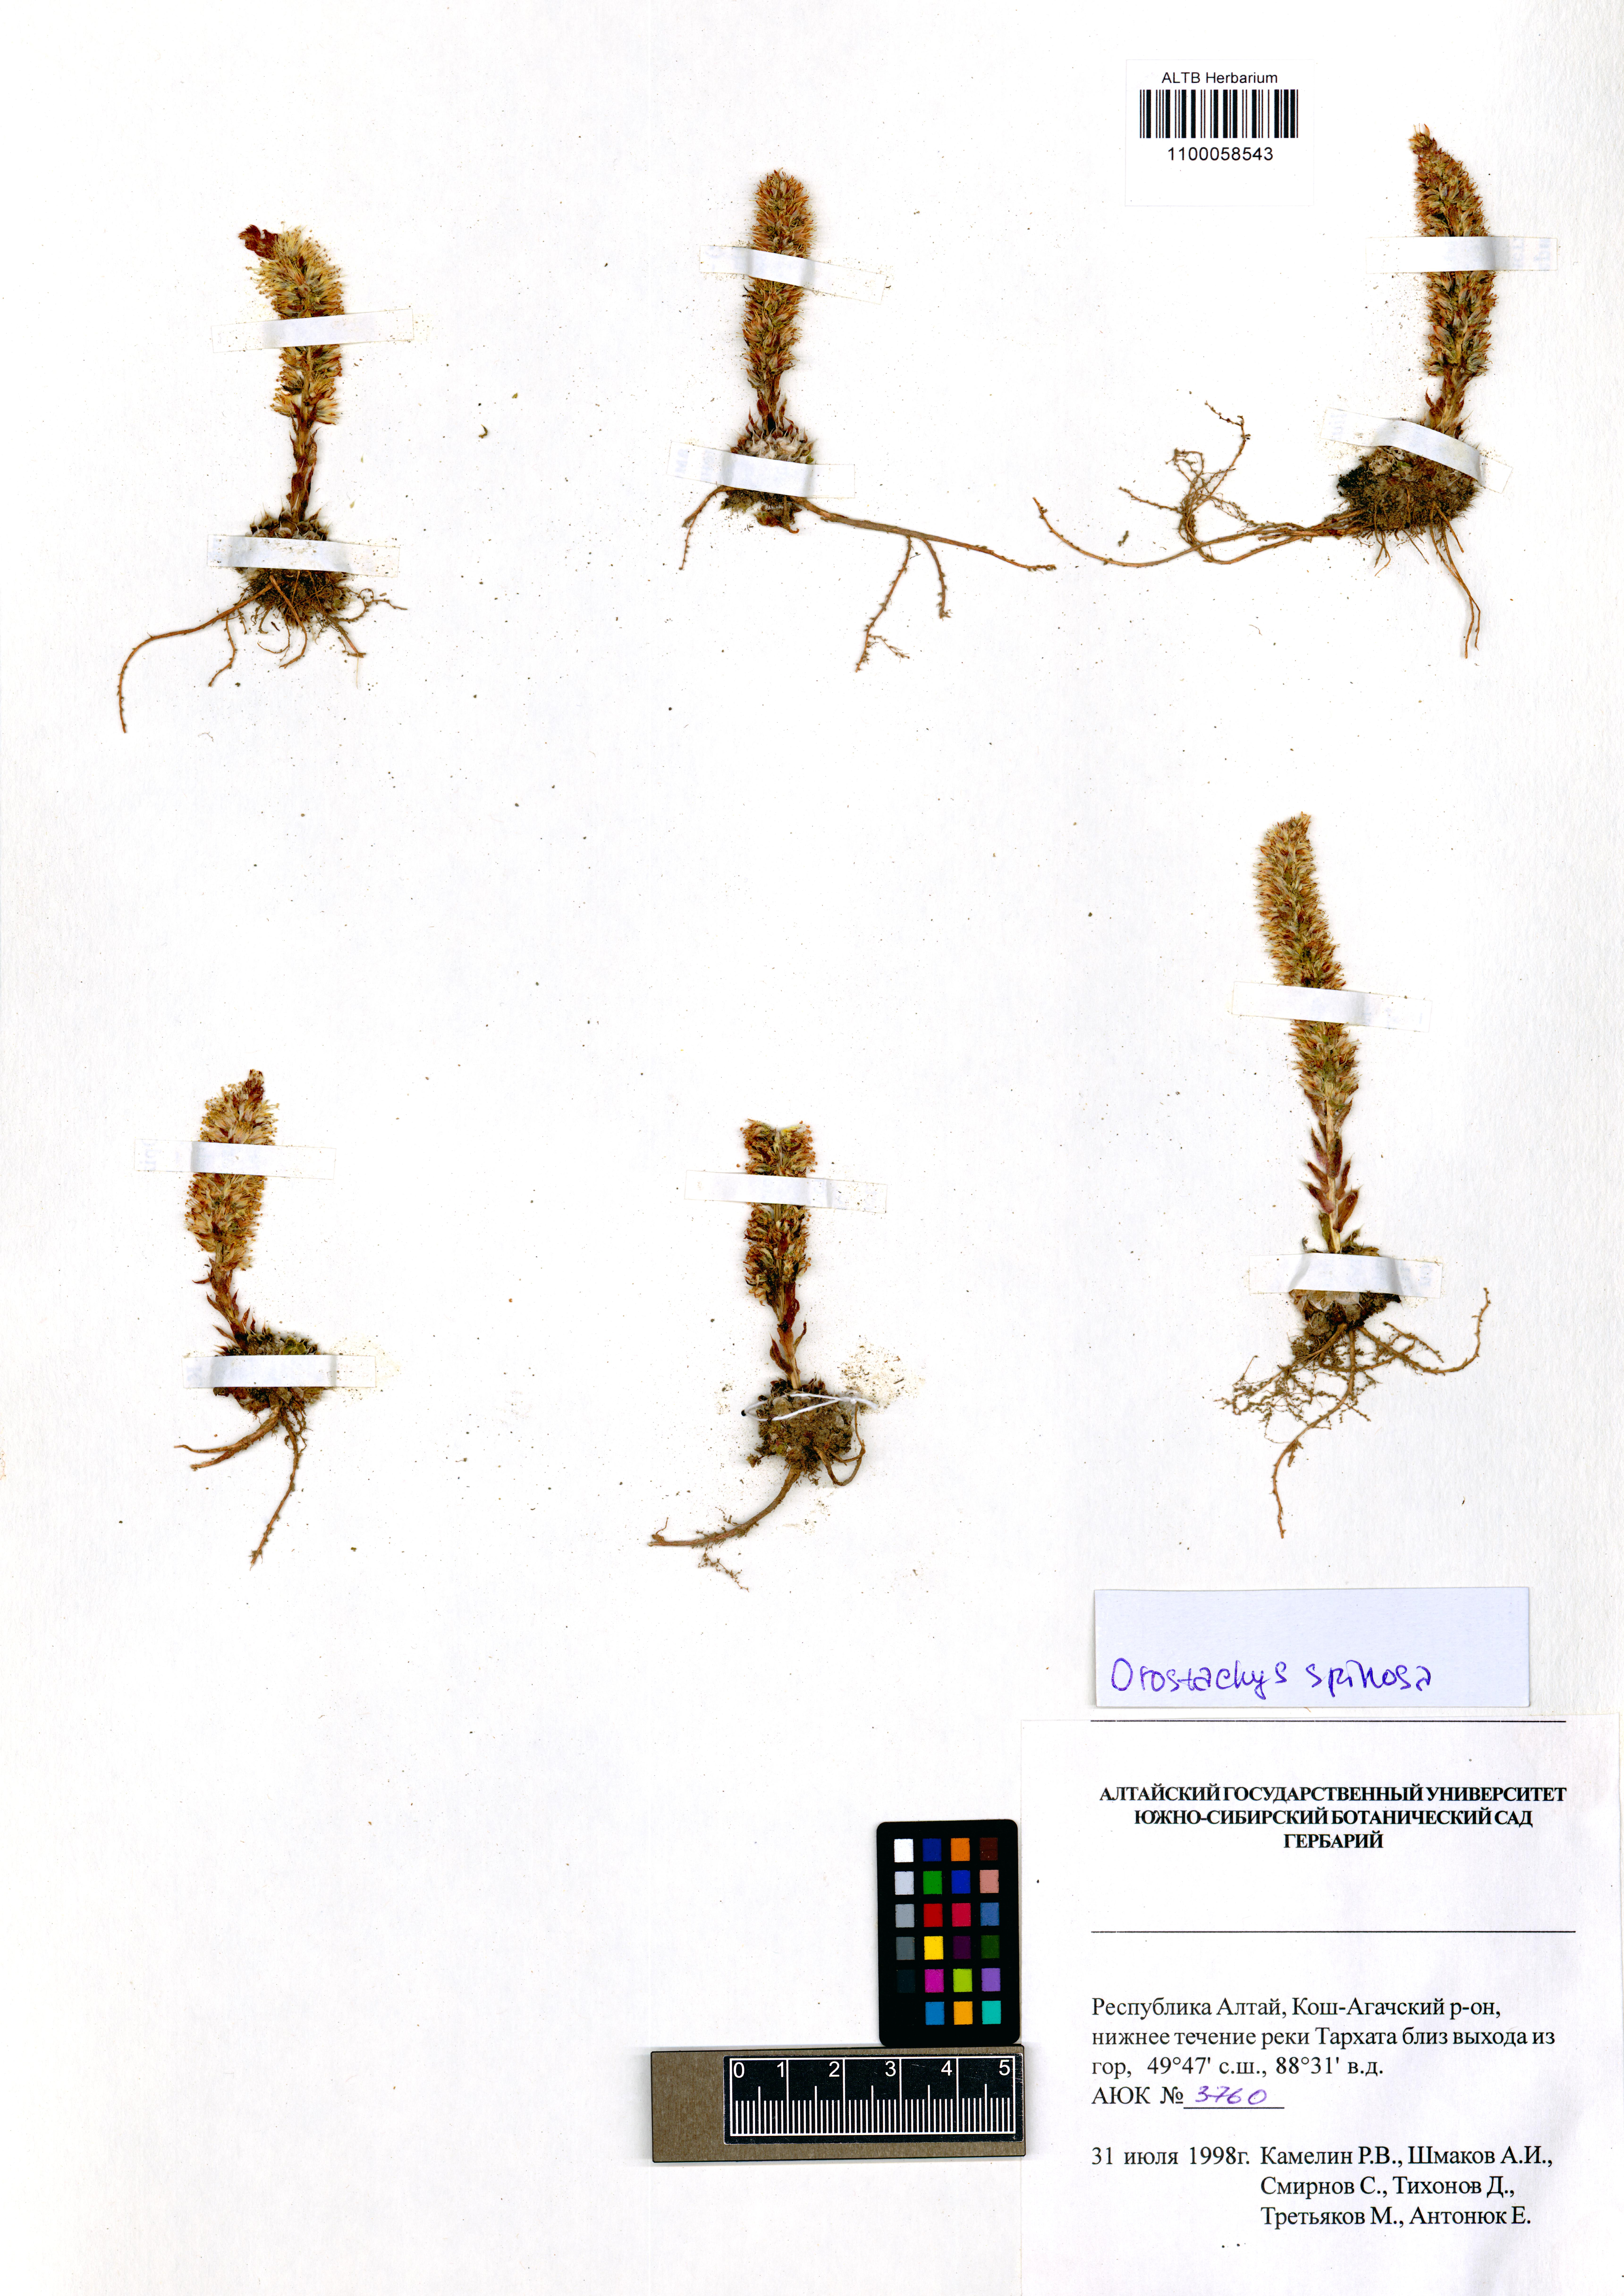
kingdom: Plantae
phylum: Tracheophyta
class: Magnoliopsida
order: Saxifragales
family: Crassulaceae
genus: Orostachys
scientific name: Orostachys spinosa
